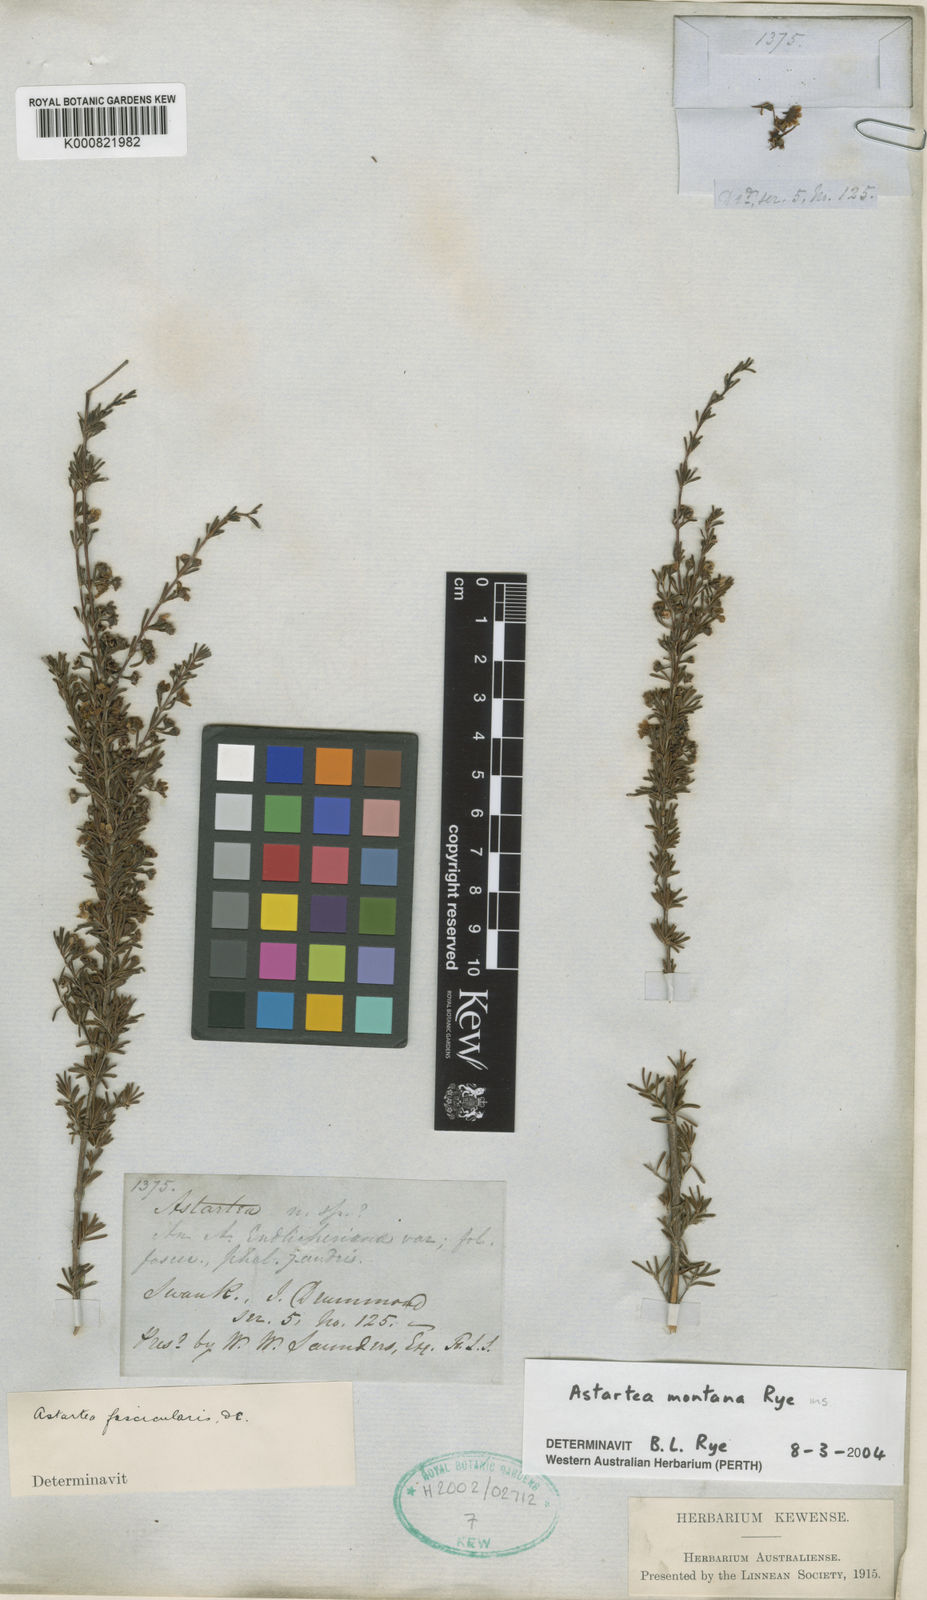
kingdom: Plantae
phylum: Tracheophyta
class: Magnoliopsida
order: Myrtales
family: Myrtaceae
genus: Astartea
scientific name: Astartea montana
